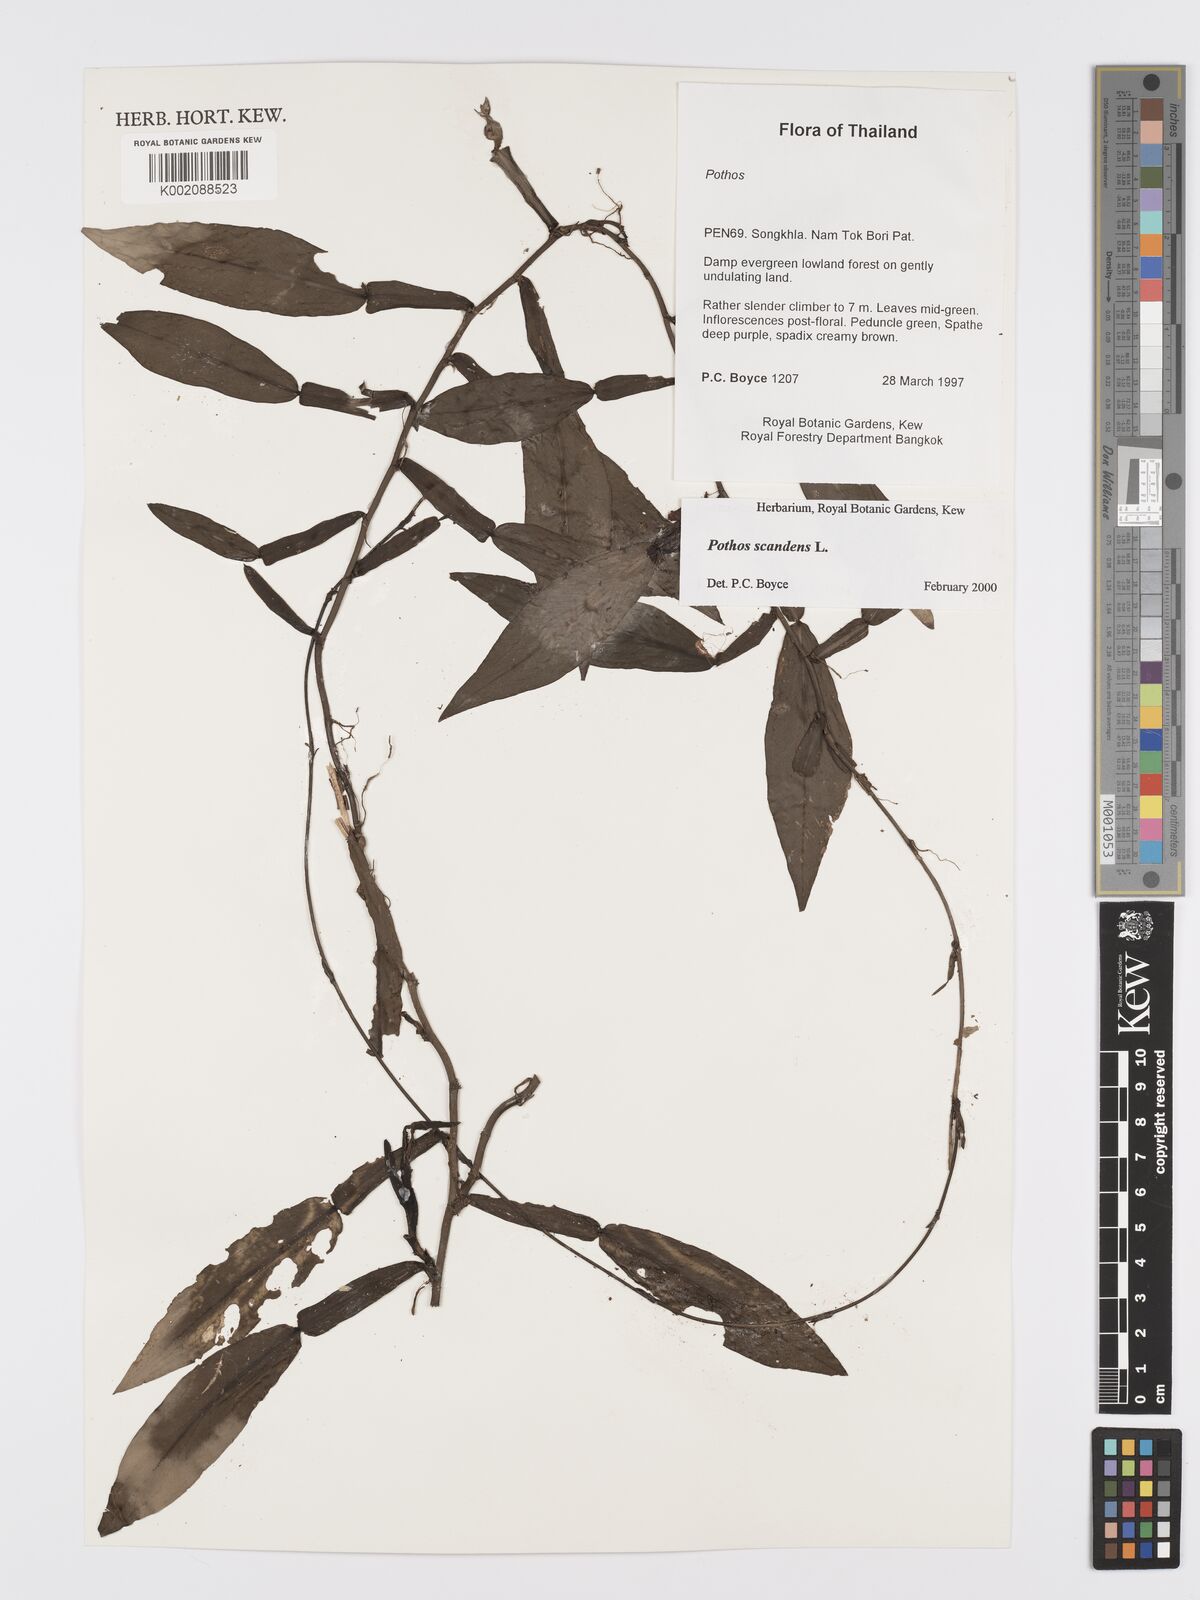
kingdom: Plantae
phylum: Tracheophyta
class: Liliopsida
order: Alismatales
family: Araceae
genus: Pothos
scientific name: Pothos scandens
